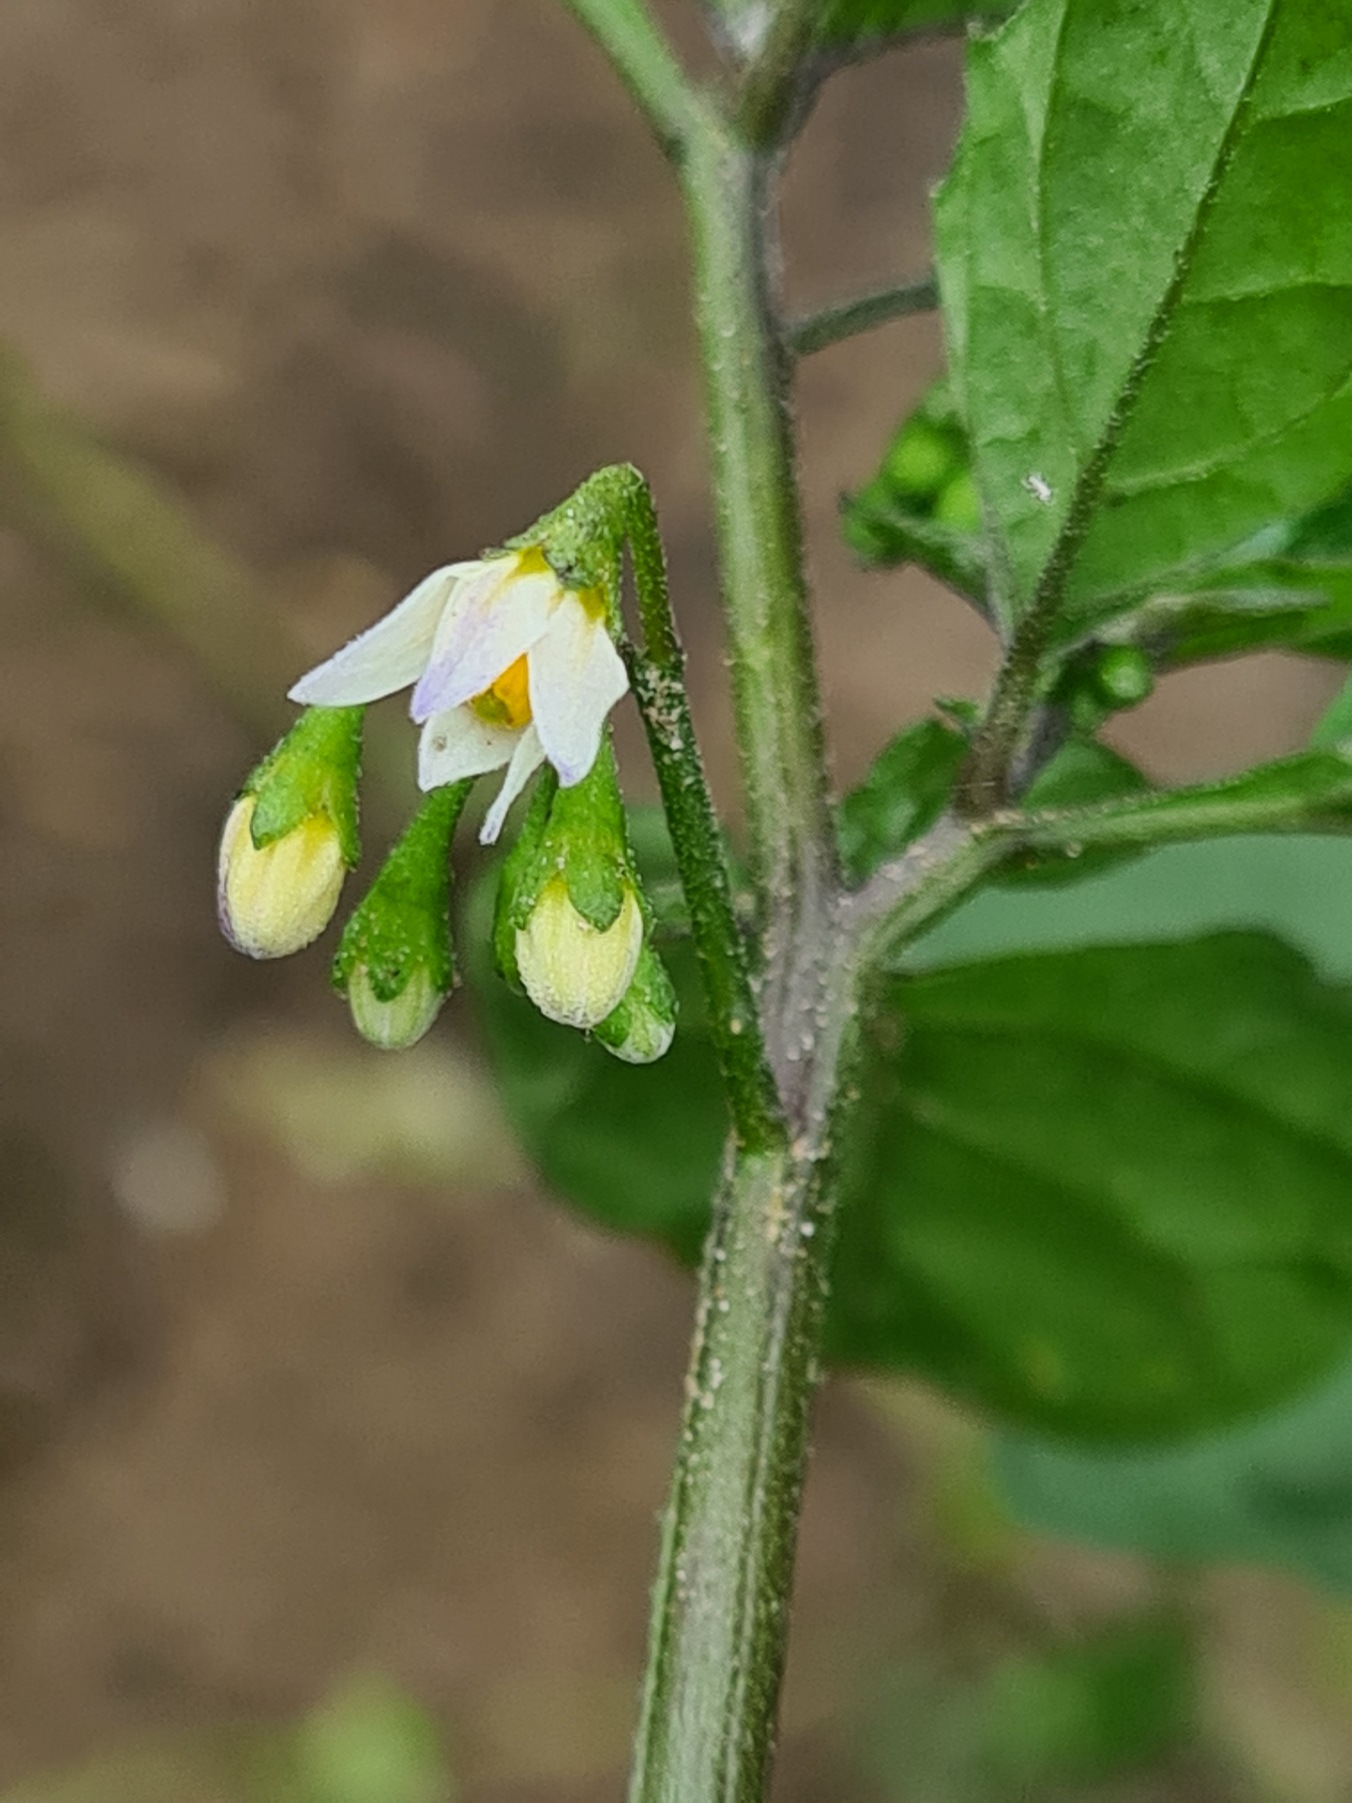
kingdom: Plantae
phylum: Tracheophyta
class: Magnoliopsida
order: Solanales
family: Solanaceae
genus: Solanum
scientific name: Solanum nigrum
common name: Sort natskygge
